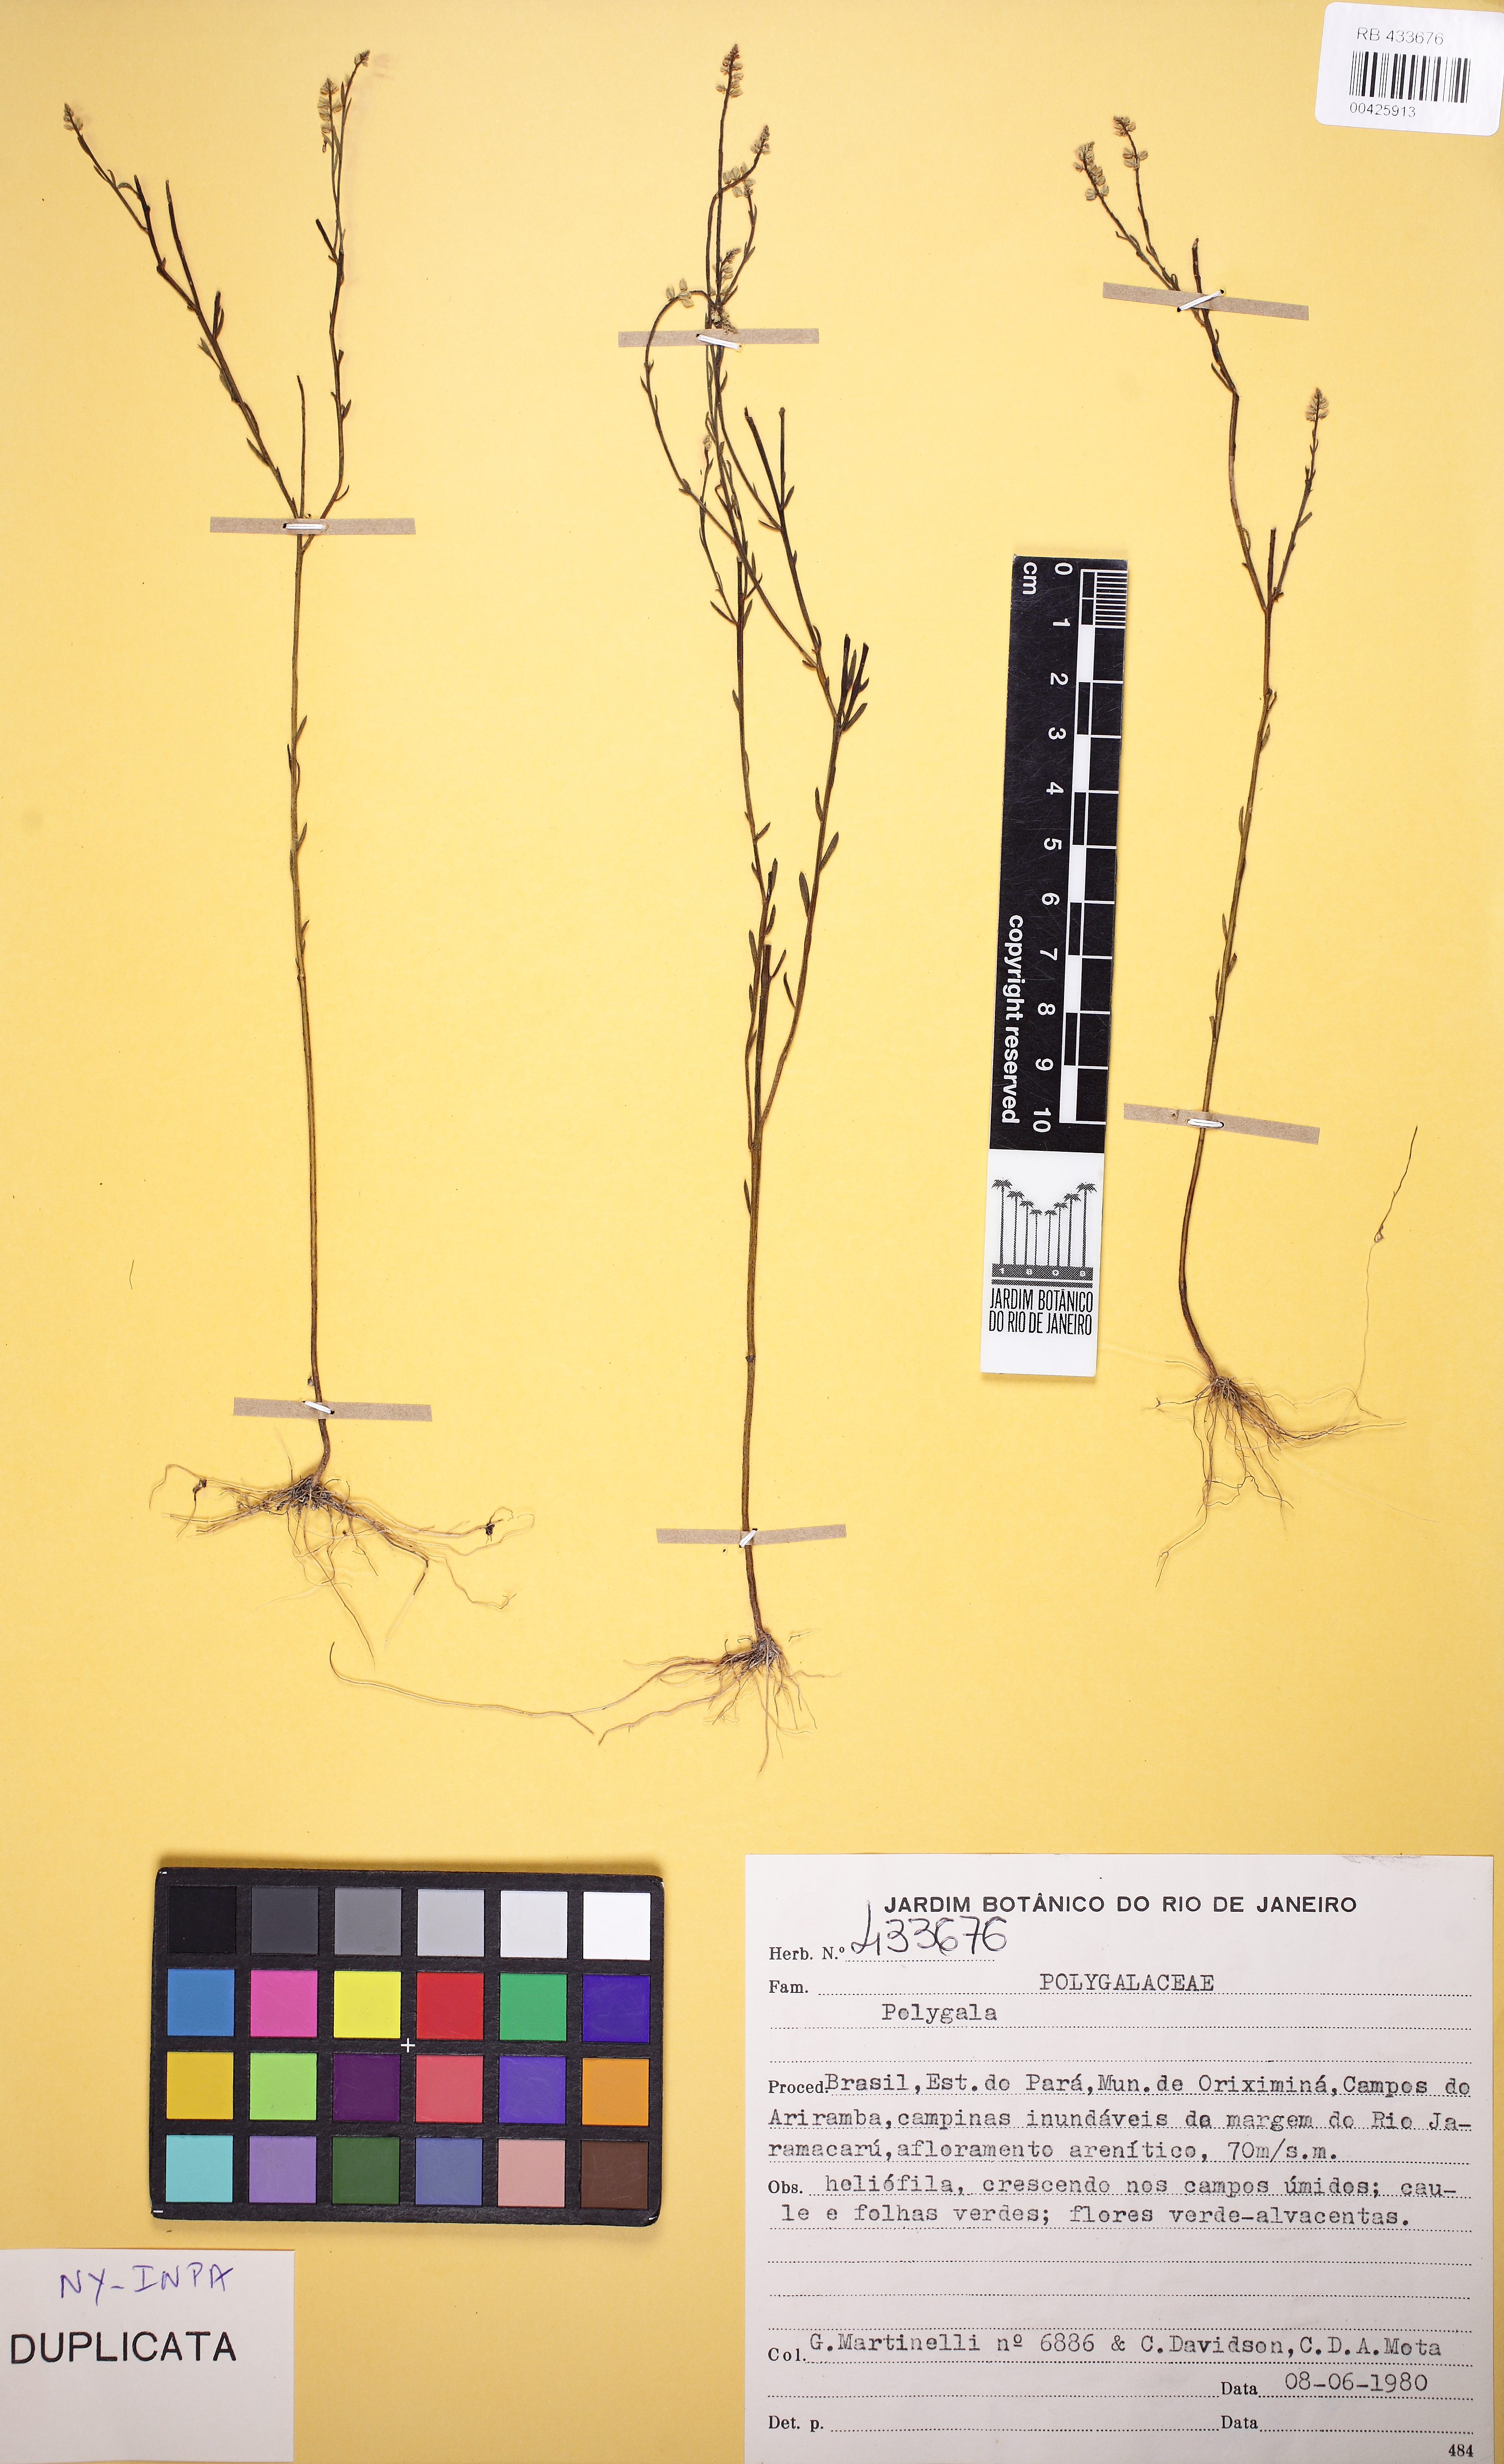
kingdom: Plantae
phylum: Tracheophyta
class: Magnoliopsida
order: Fabales
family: Polygalaceae
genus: Polygala
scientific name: Polygala appressa
